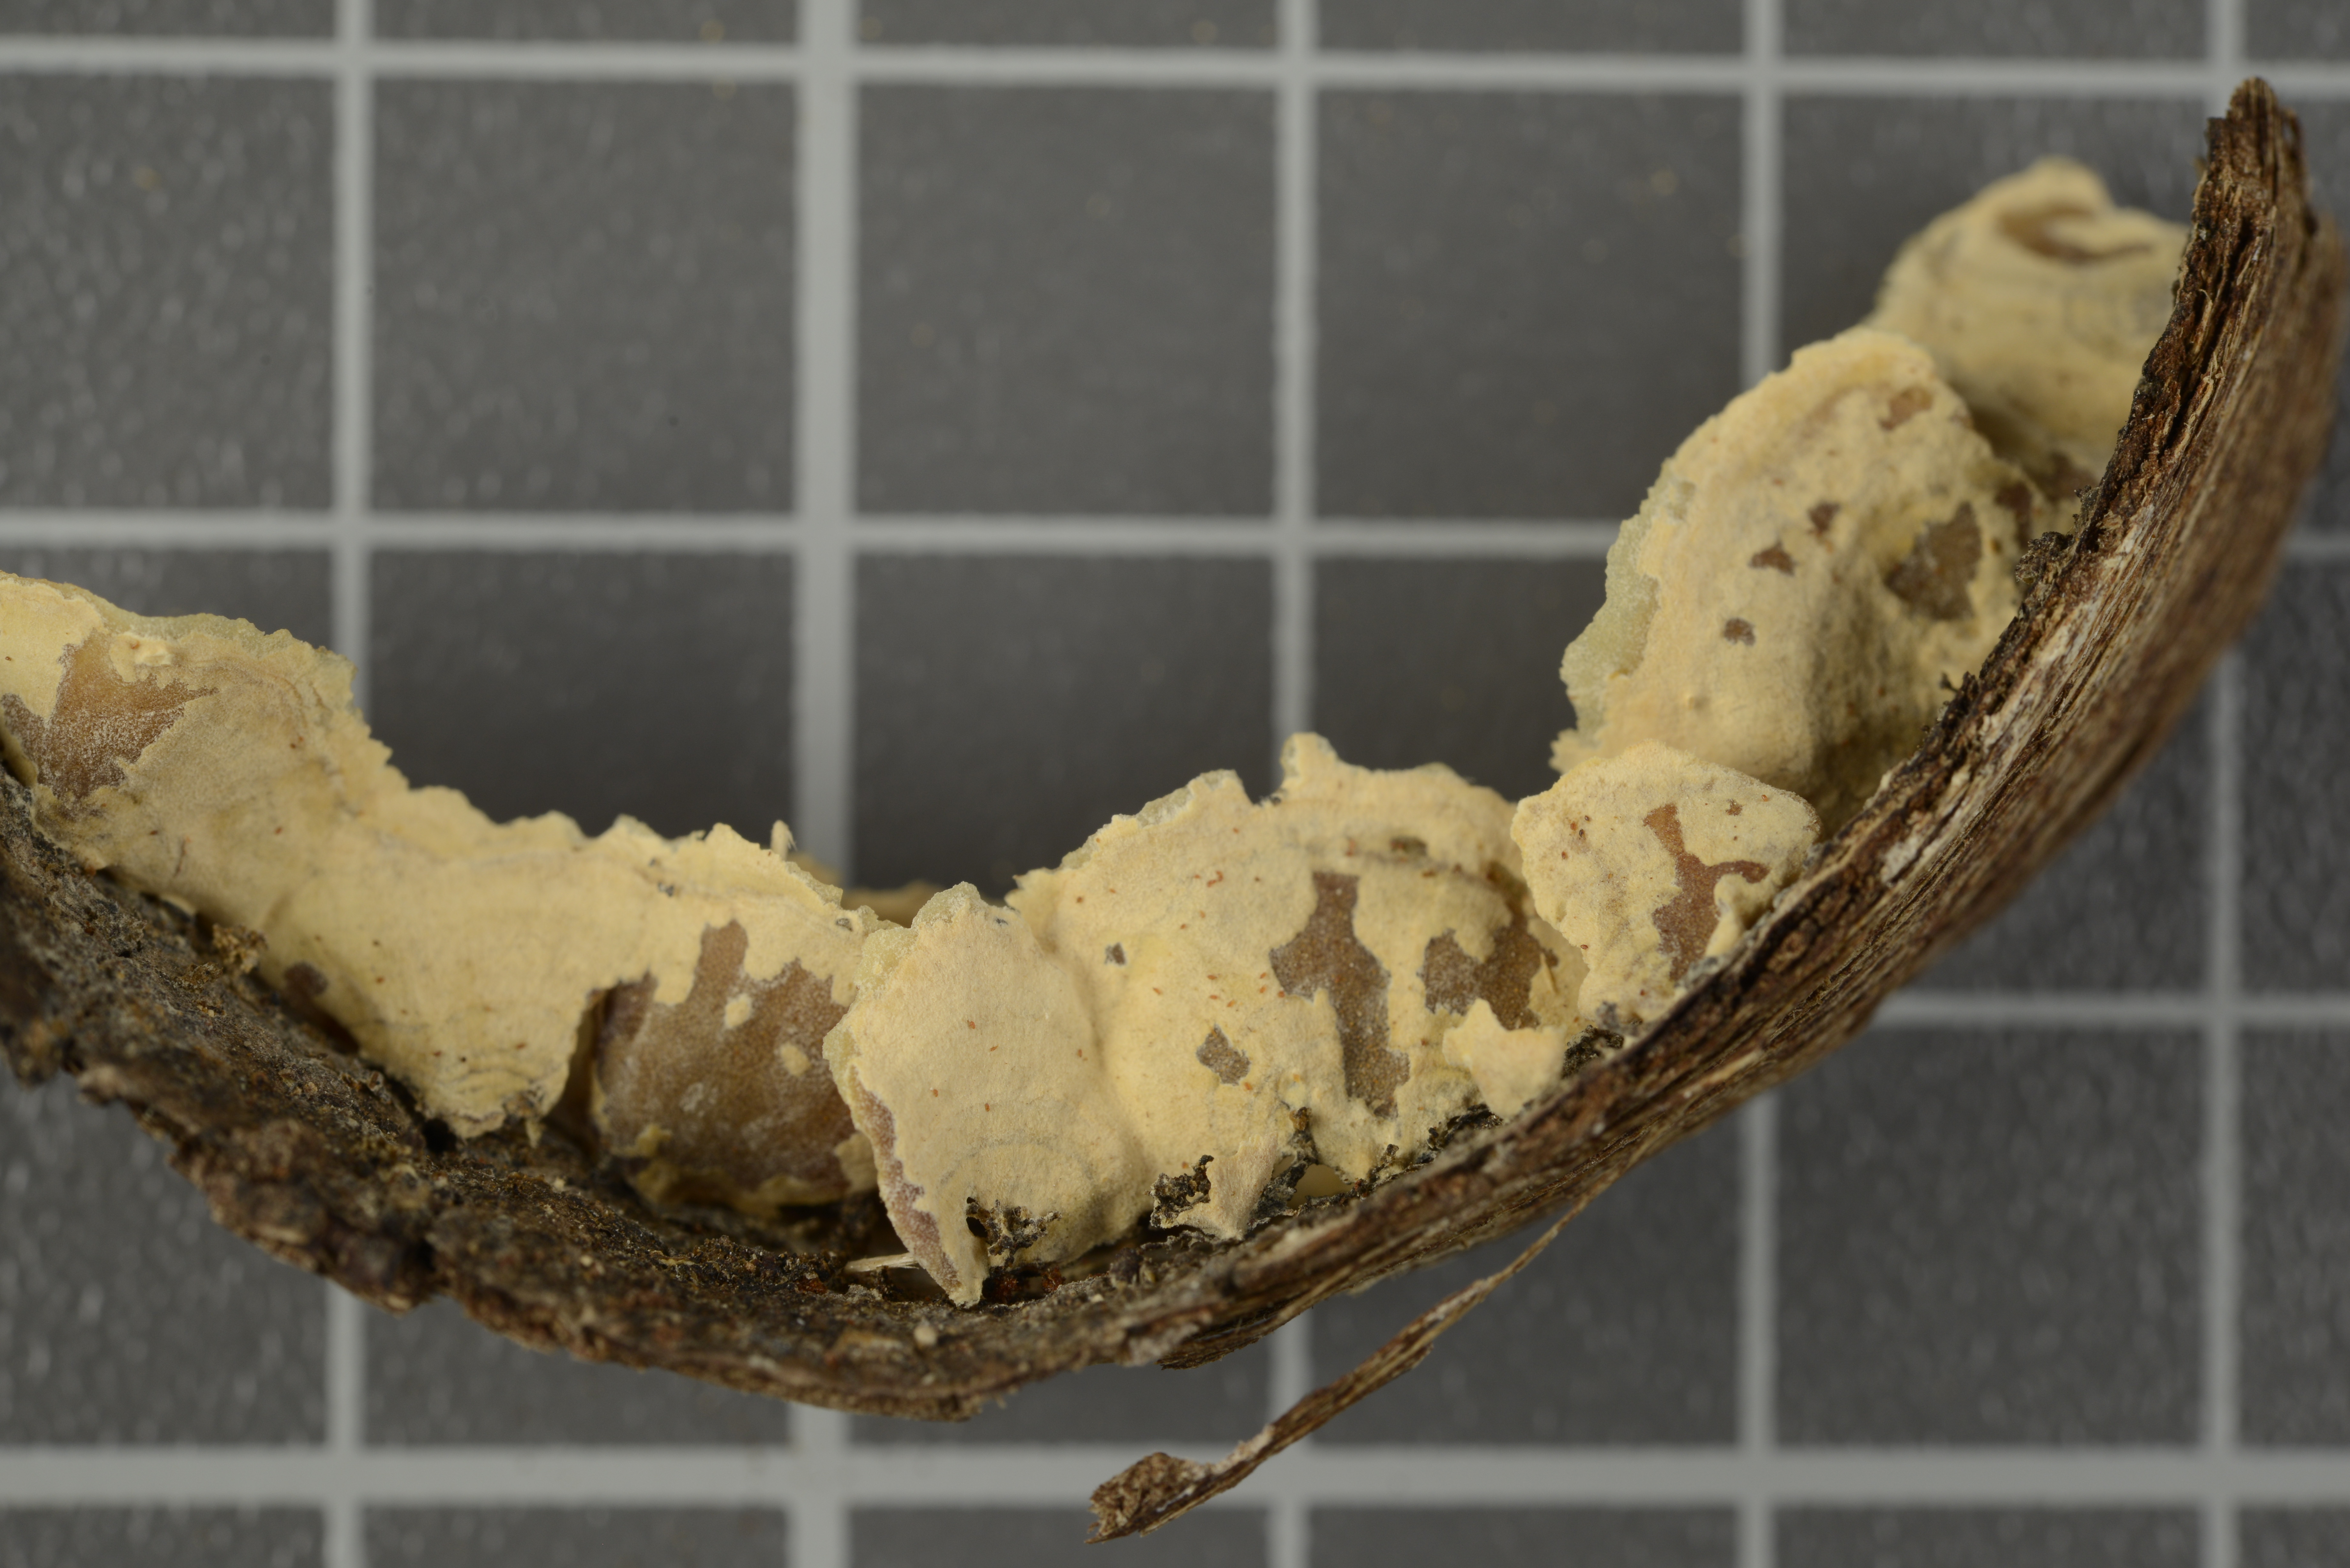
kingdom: Fungi
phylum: Basidiomycota
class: Agaricomycetes
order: Polyporales
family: Irpicaceae
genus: Gloeoporus
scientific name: Gloeoporus citrinus
